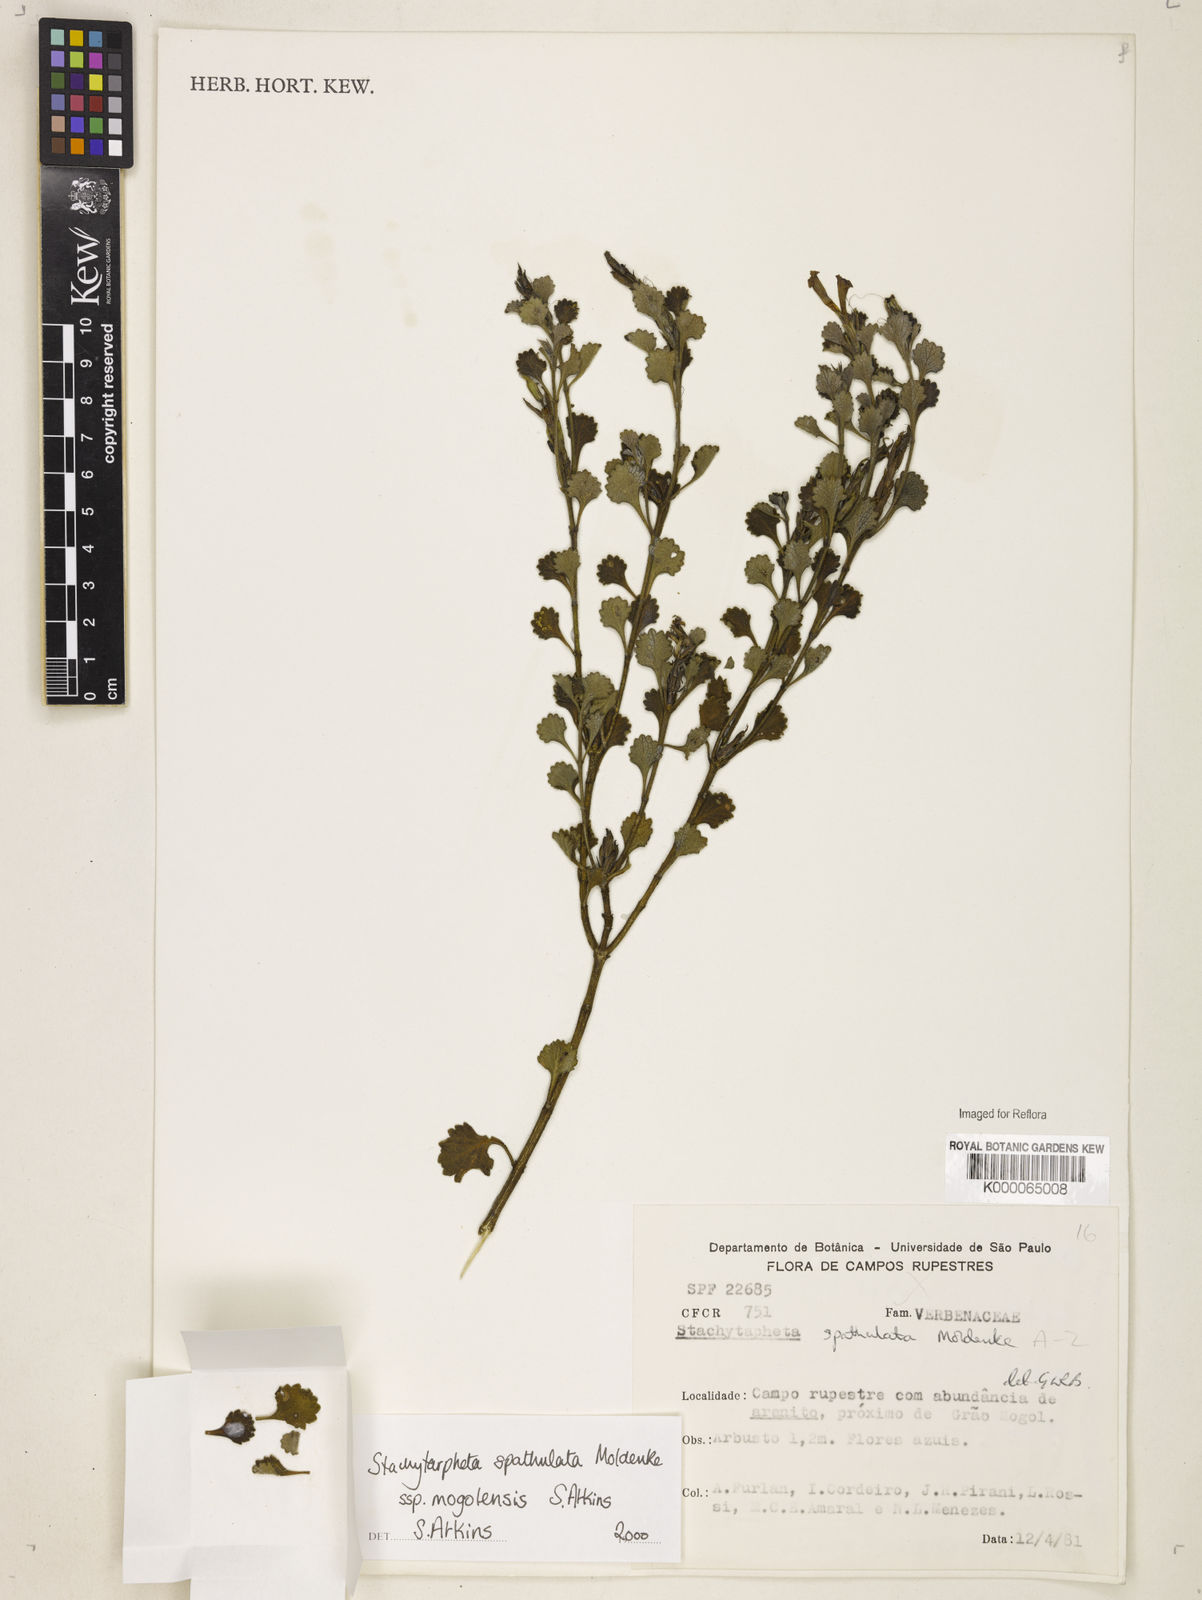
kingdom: Plantae
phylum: Tracheophyta
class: Magnoliopsida
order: Lamiales
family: Verbenaceae
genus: Stachytarpheta
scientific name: Stachytarpheta spathulata
